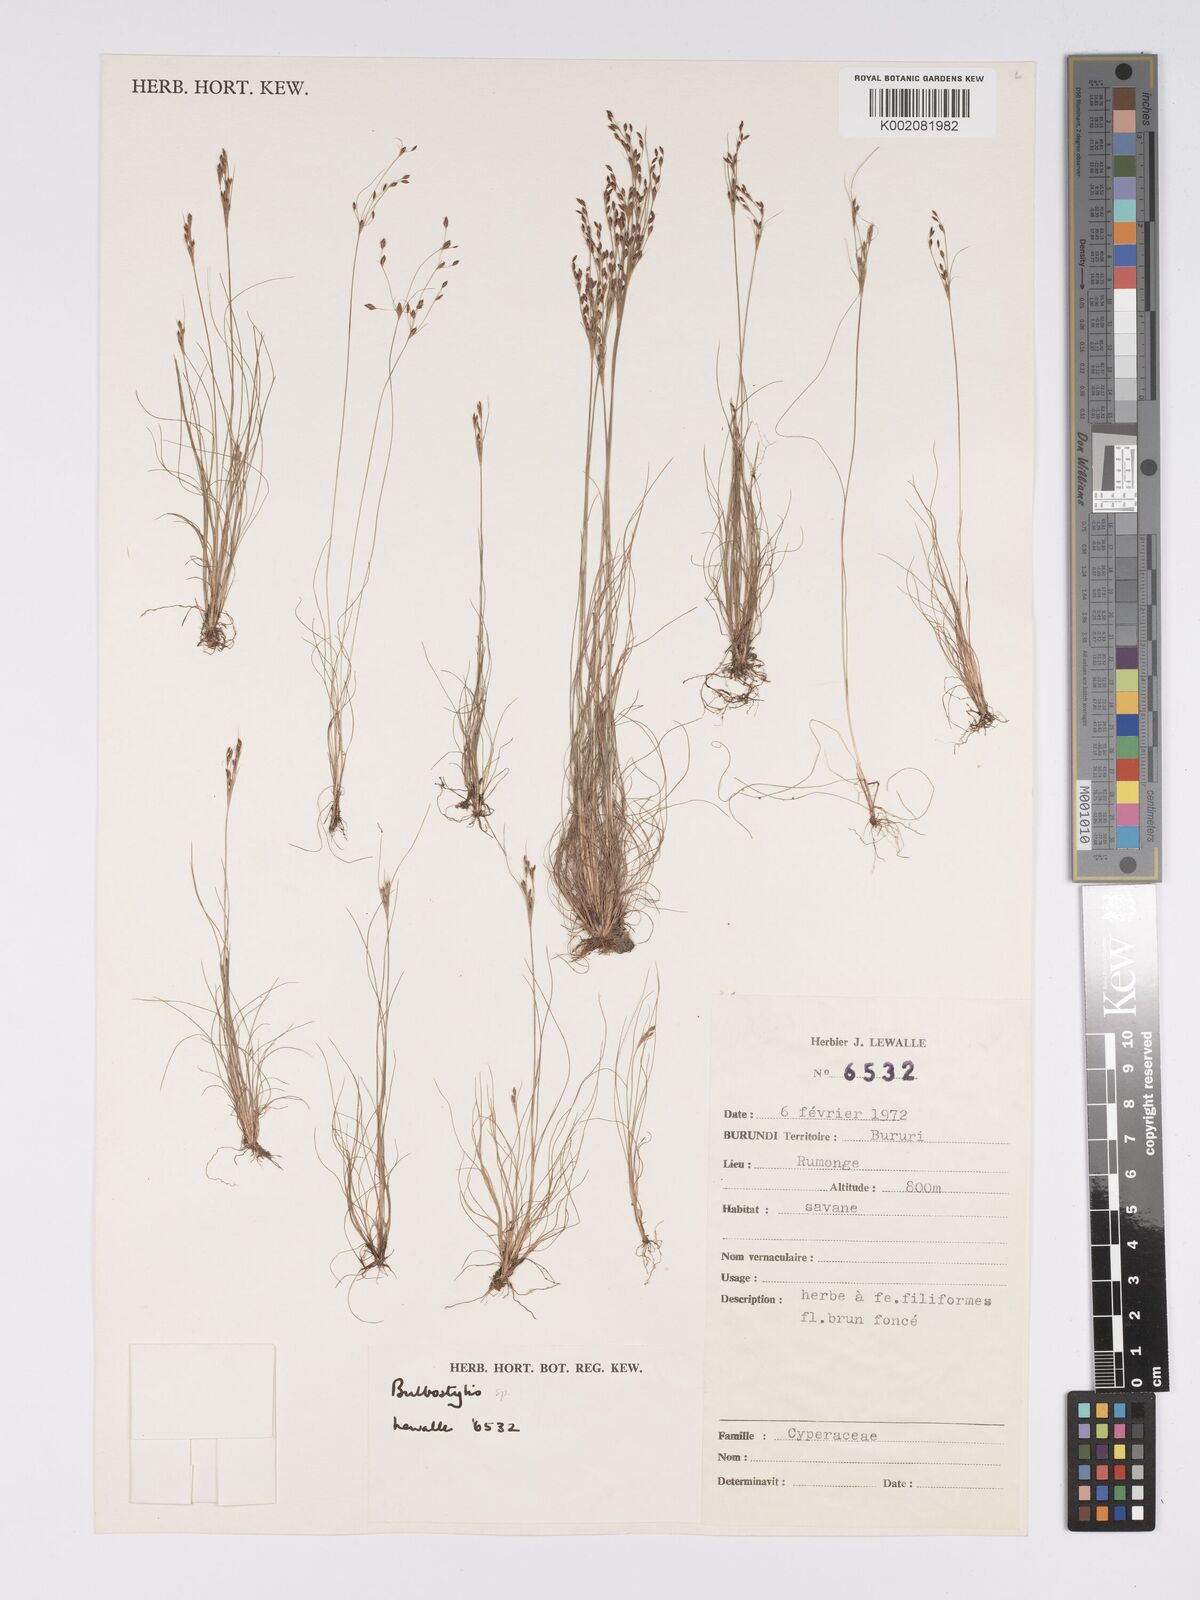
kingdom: Plantae
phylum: Tracheophyta
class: Liliopsida
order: Poales
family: Cyperaceae
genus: Bulbostylis
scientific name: Bulbostylis
